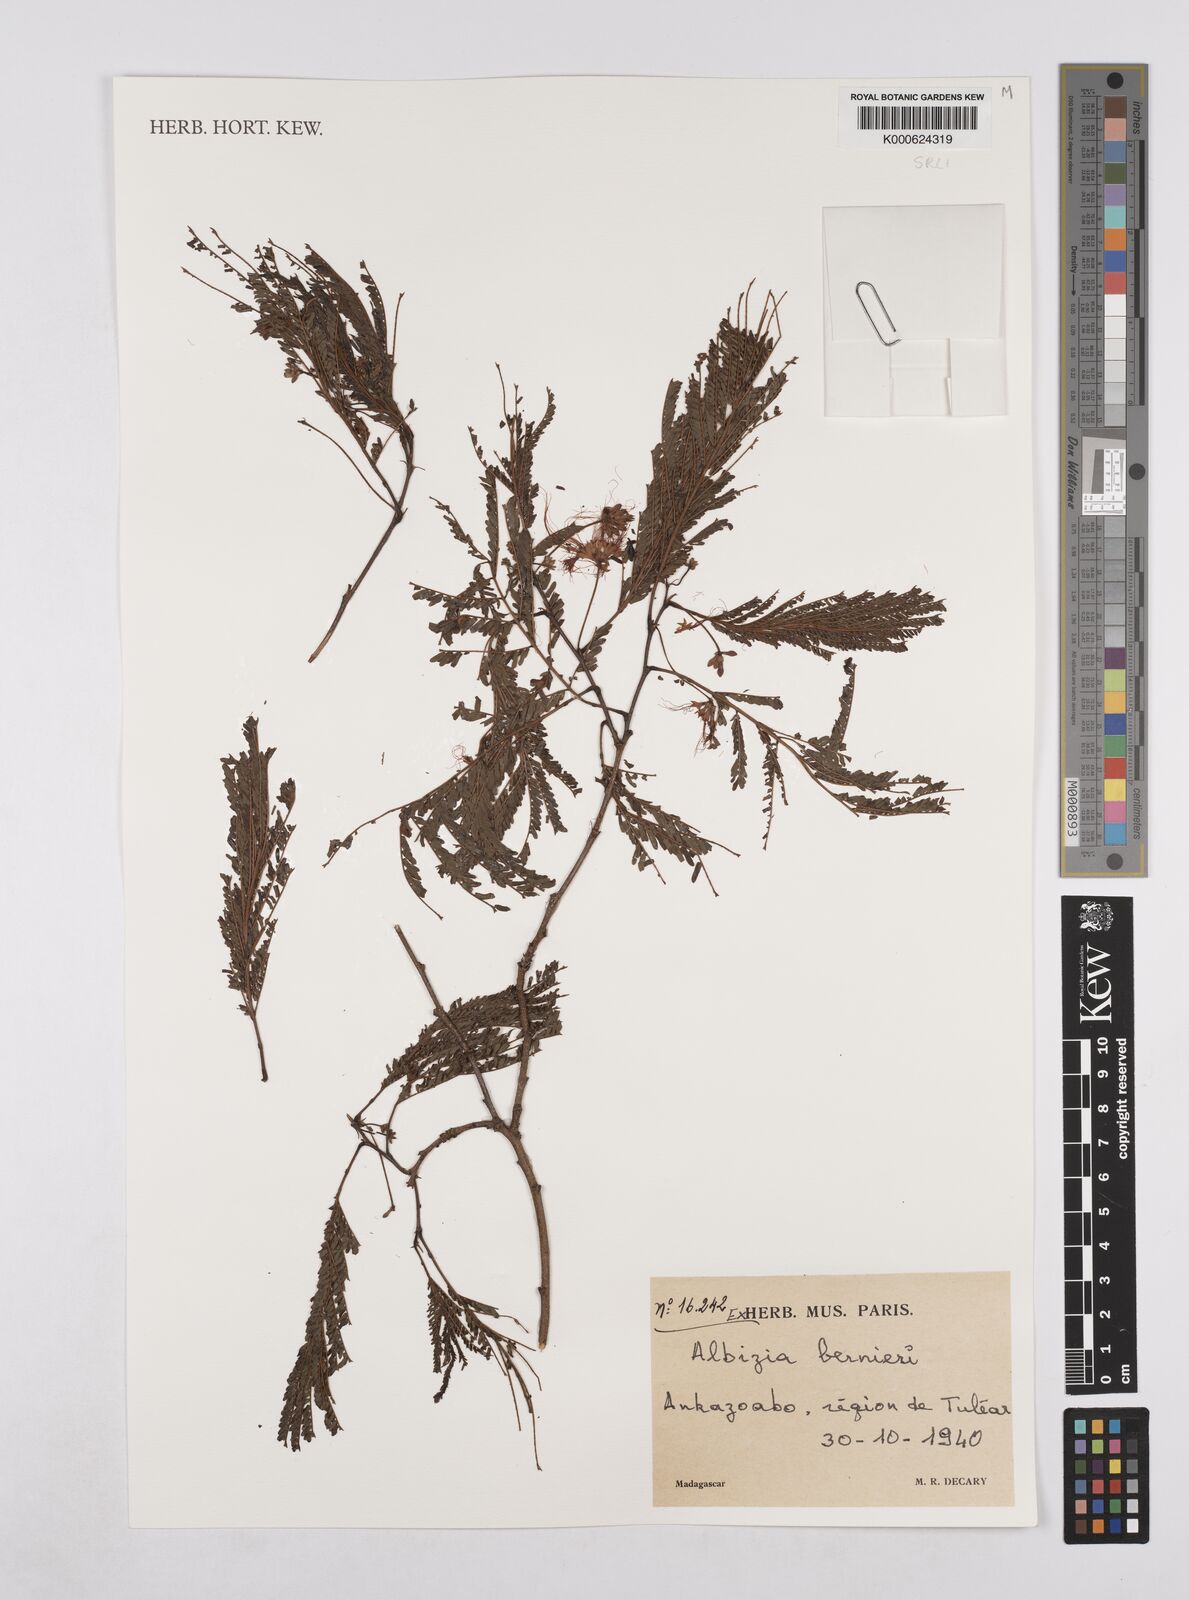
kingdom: Plantae
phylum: Tracheophyta
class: Magnoliopsida
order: Fabales
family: Fabaceae
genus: Albizia
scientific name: Albizia bernieri
